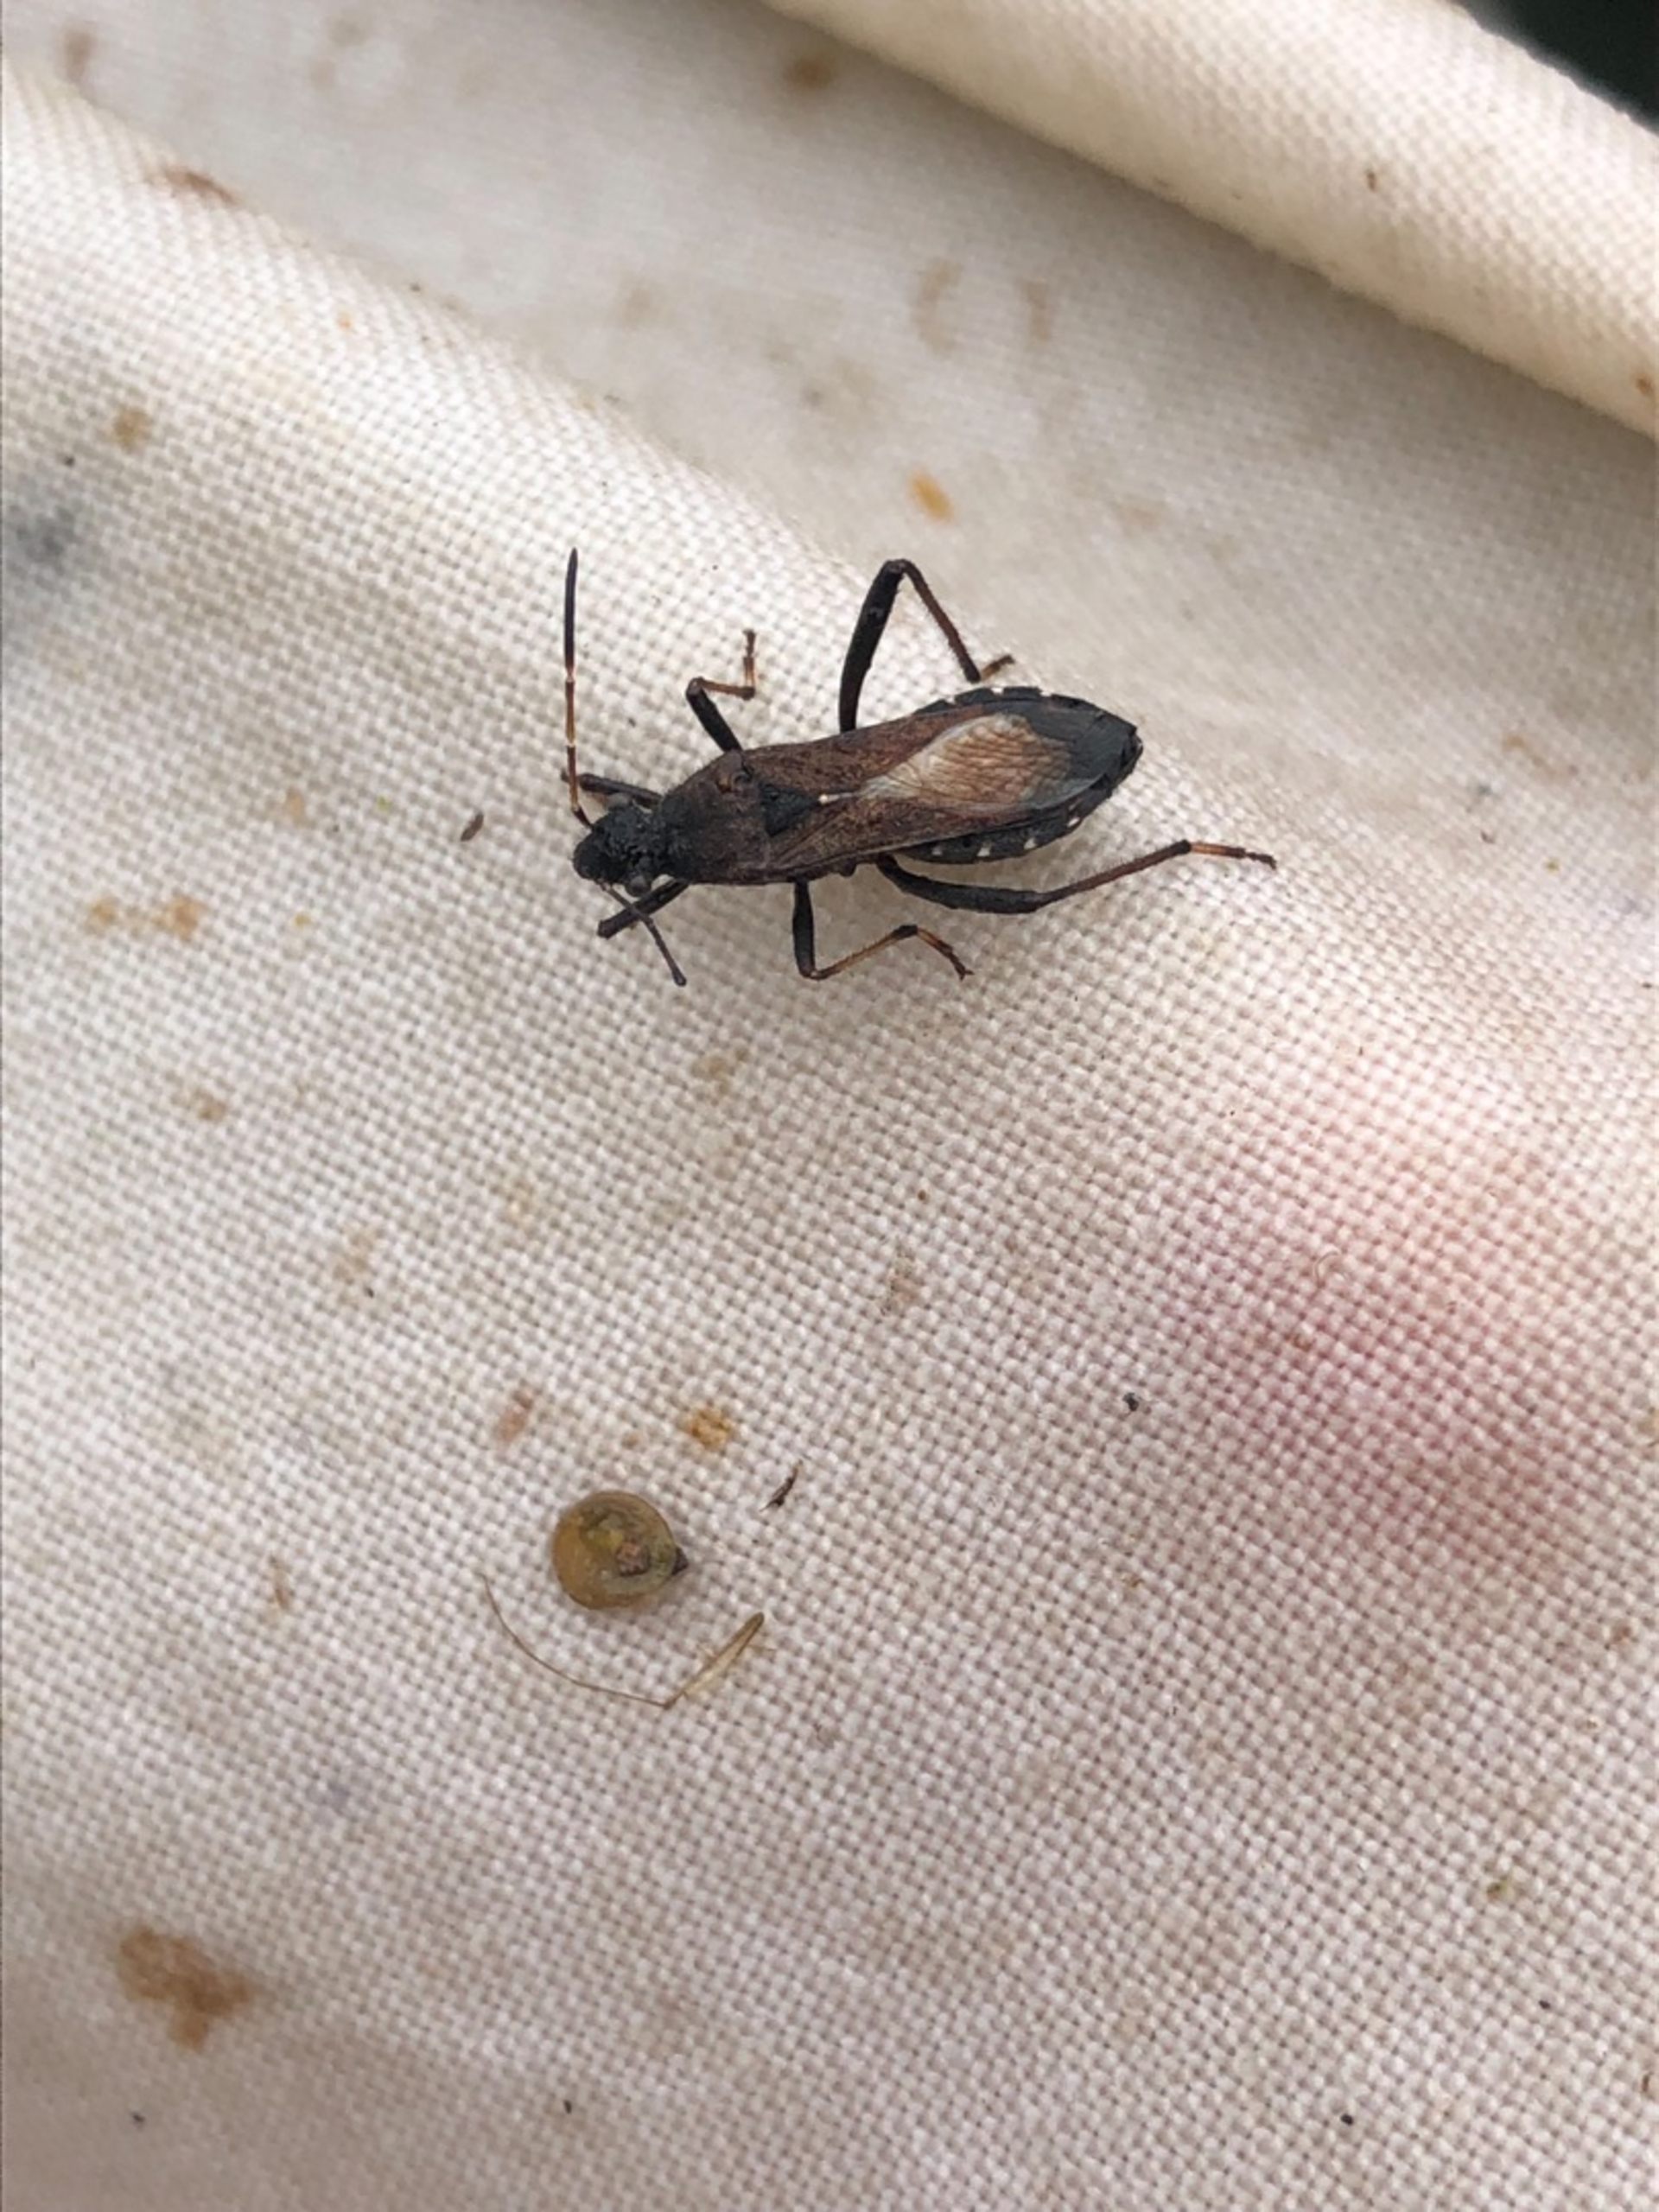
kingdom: Animalia
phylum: Arthropoda
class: Insecta
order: Hemiptera
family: Alydidae
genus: Alydus
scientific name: Alydus calcaratus
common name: Hvepsetæge
